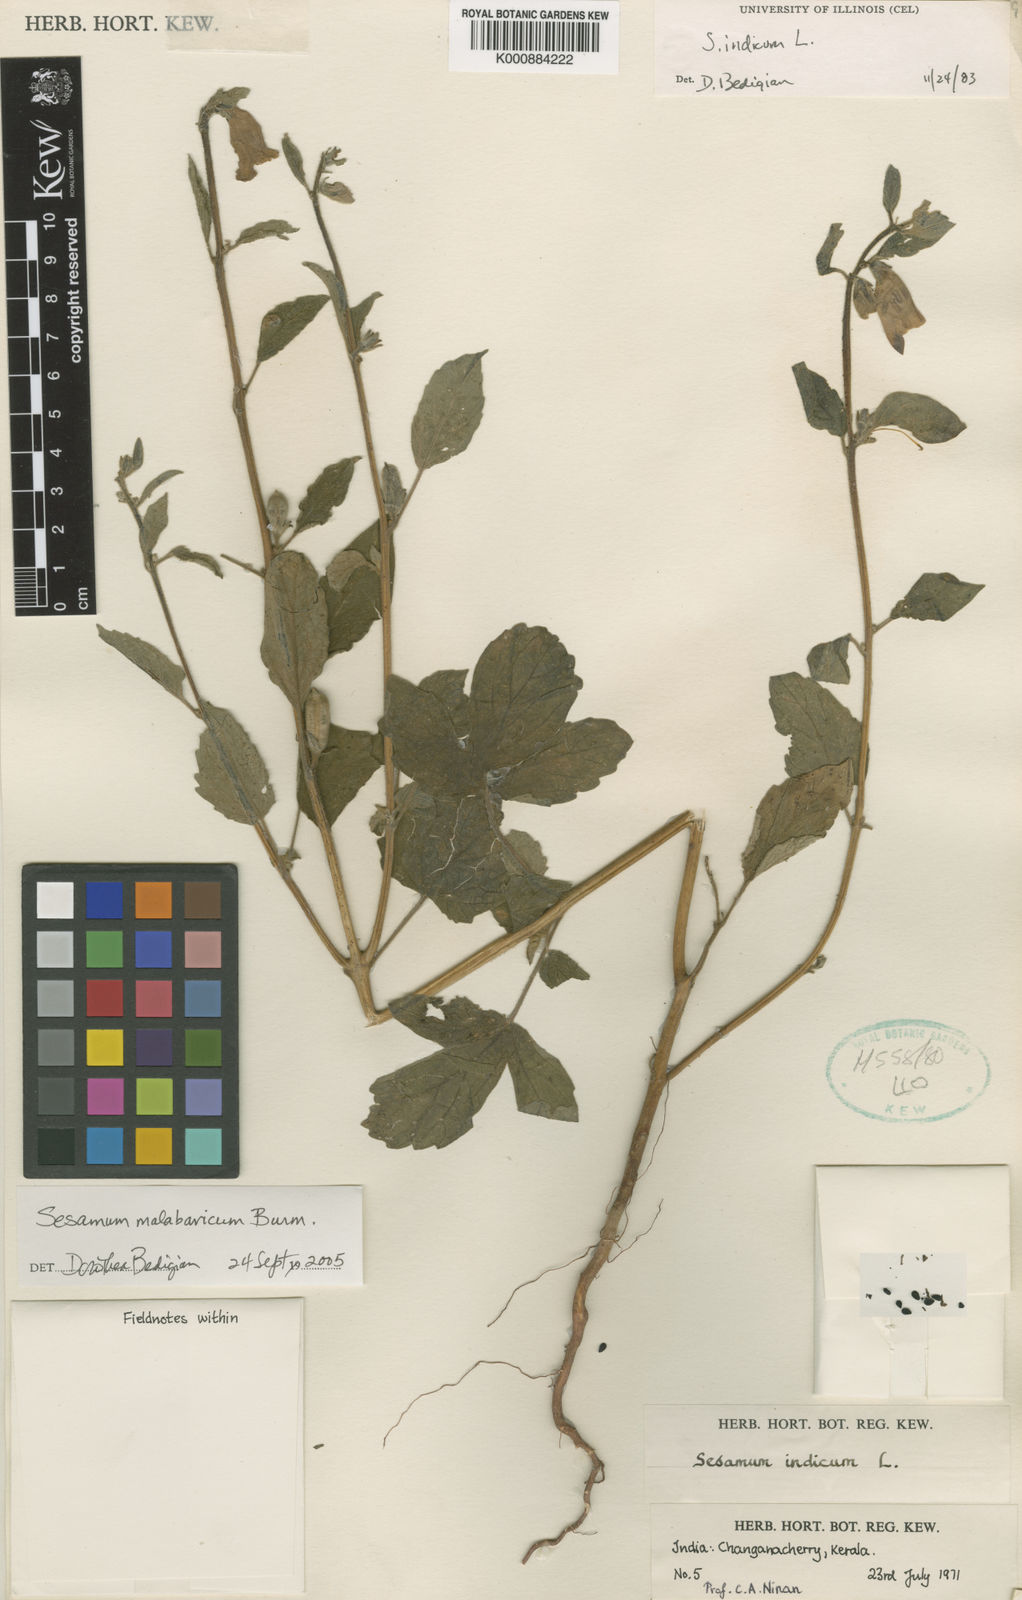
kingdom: Plantae
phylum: Tracheophyta
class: Magnoliopsida
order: Lamiales
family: Pedaliaceae
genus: Sesamum
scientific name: Sesamum indicum
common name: Sesame
